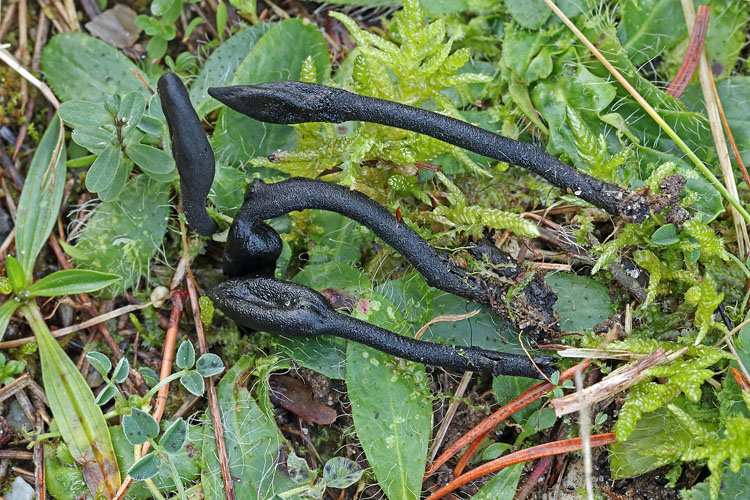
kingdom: Fungi
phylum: Ascomycota
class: Geoglossomycetes
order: Geoglossales
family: Geoglossaceae
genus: Trichoglossum
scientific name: Trichoglossum hirsutum
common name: håret jordtunge
